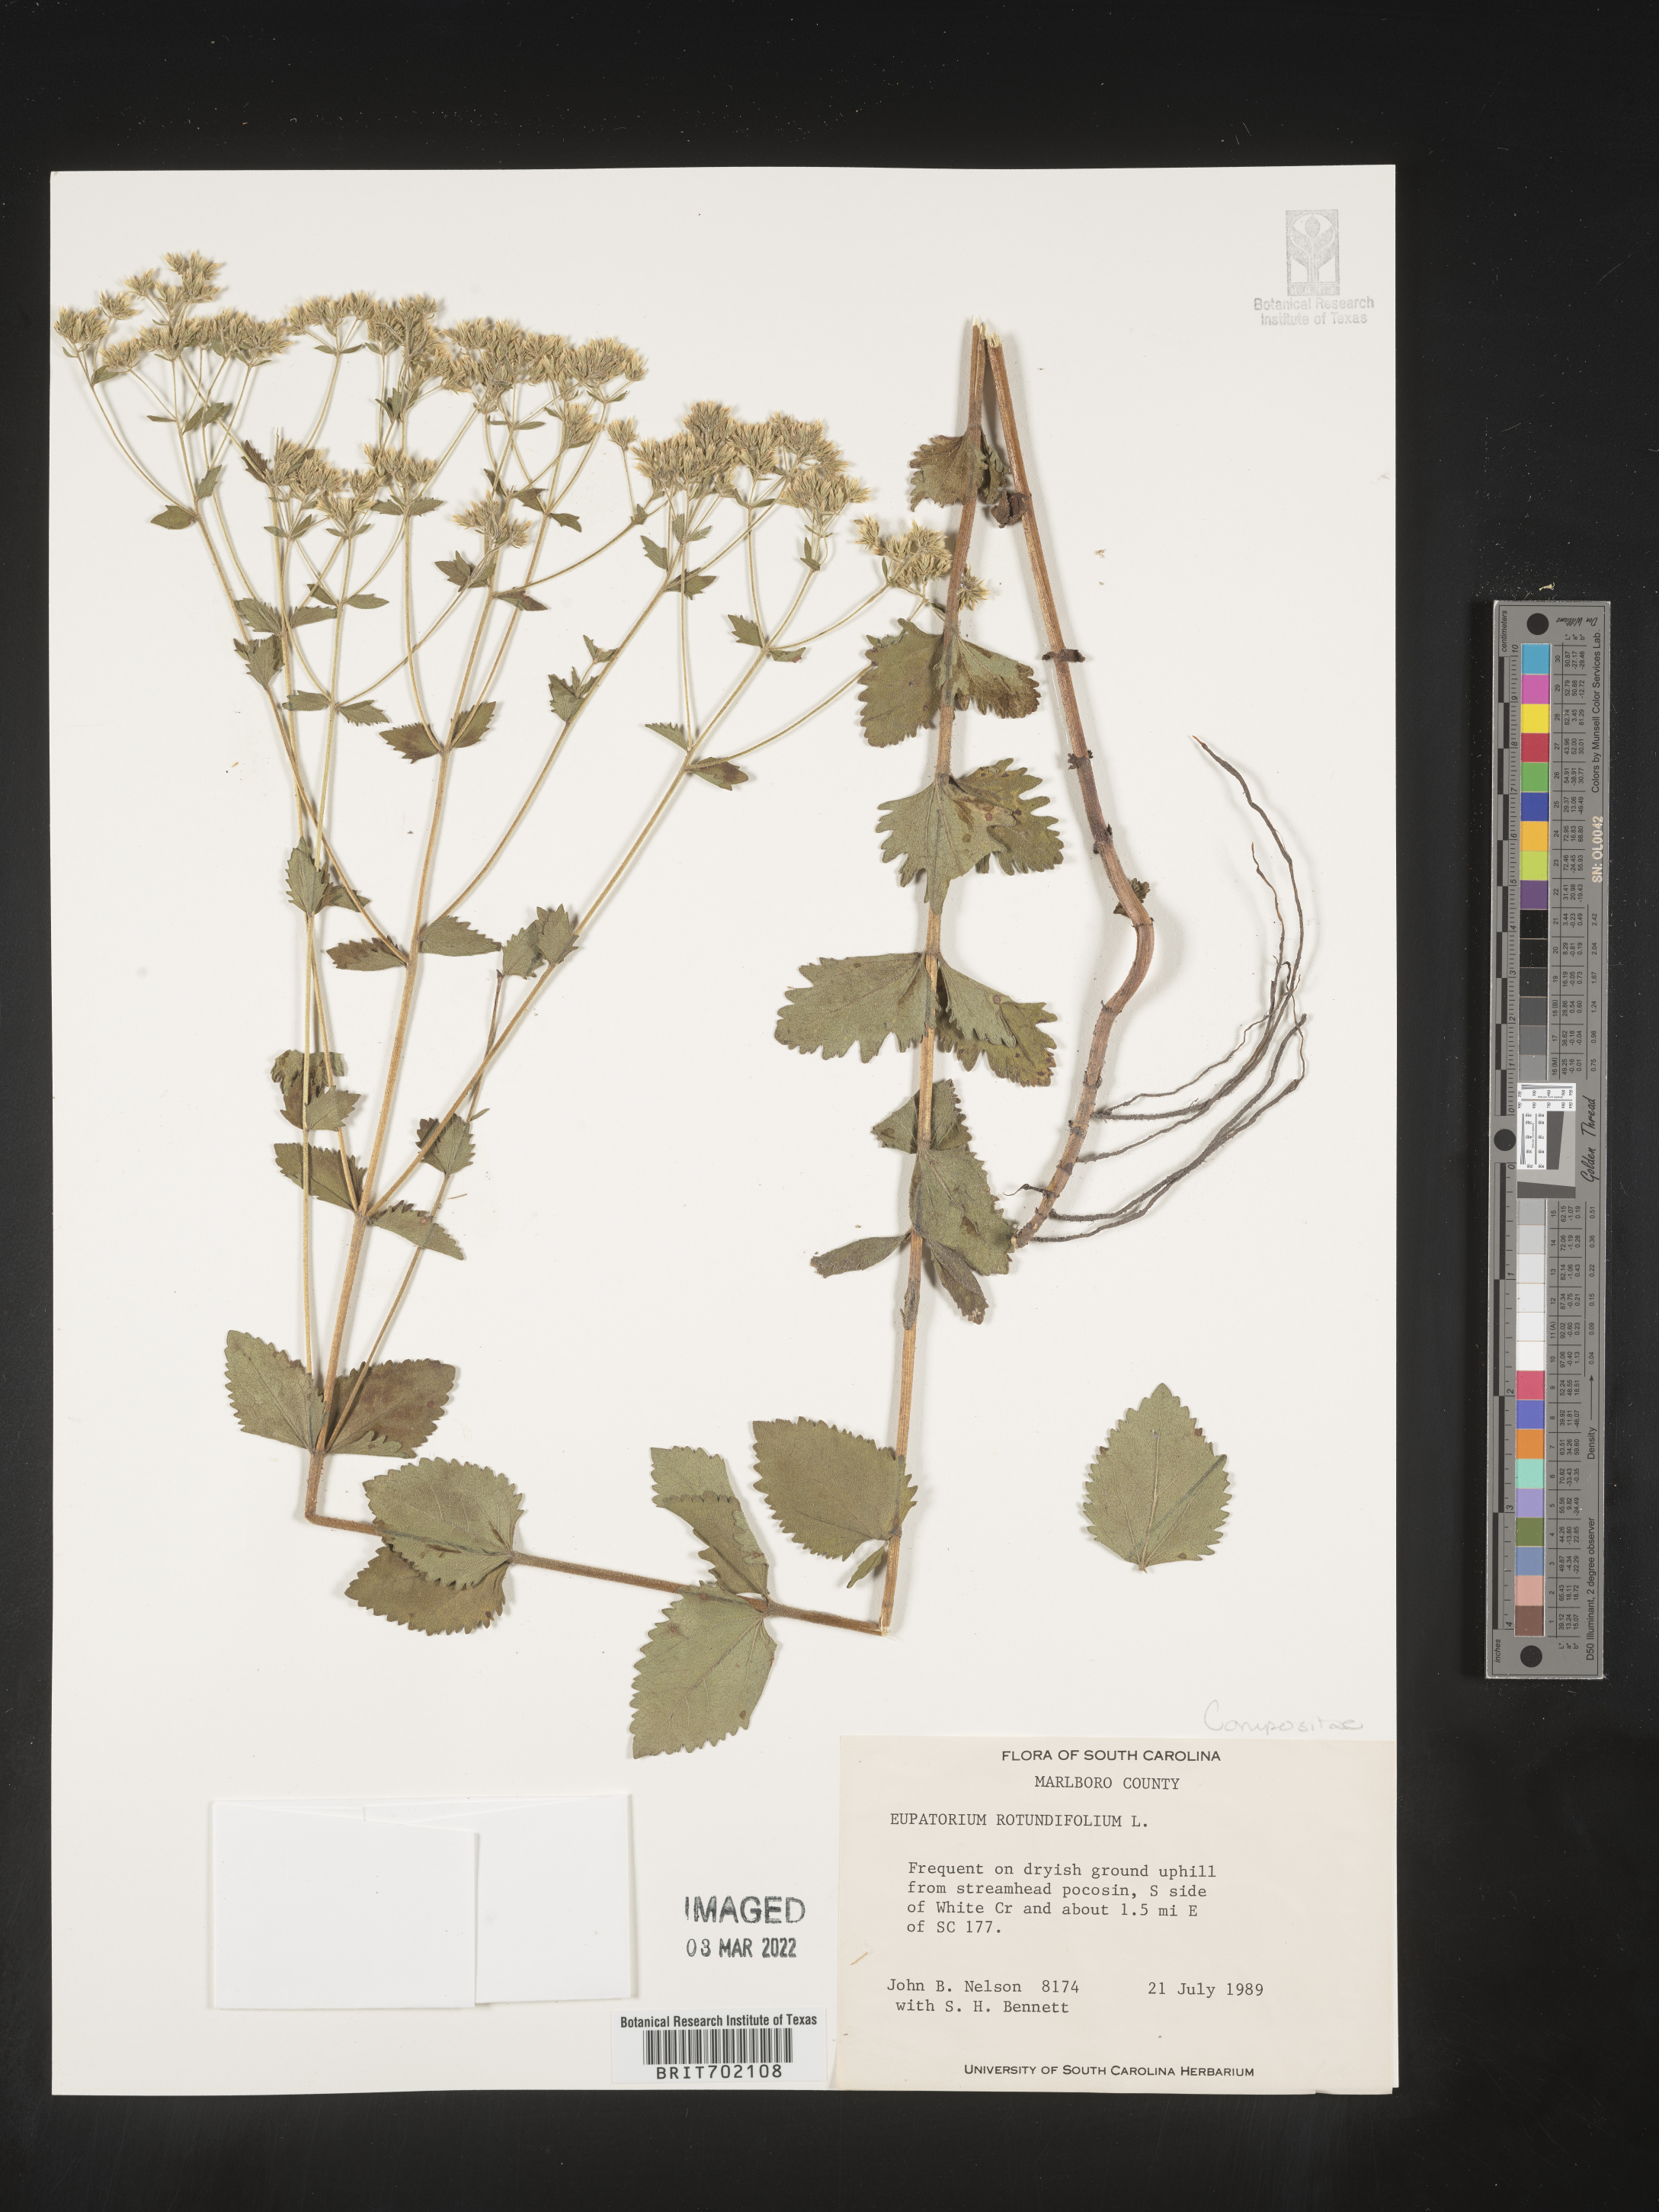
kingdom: Plantae
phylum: Tracheophyta
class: Magnoliopsida
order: Asterales
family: Asteraceae
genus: Eupatorium
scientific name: Eupatorium rotundifolium
